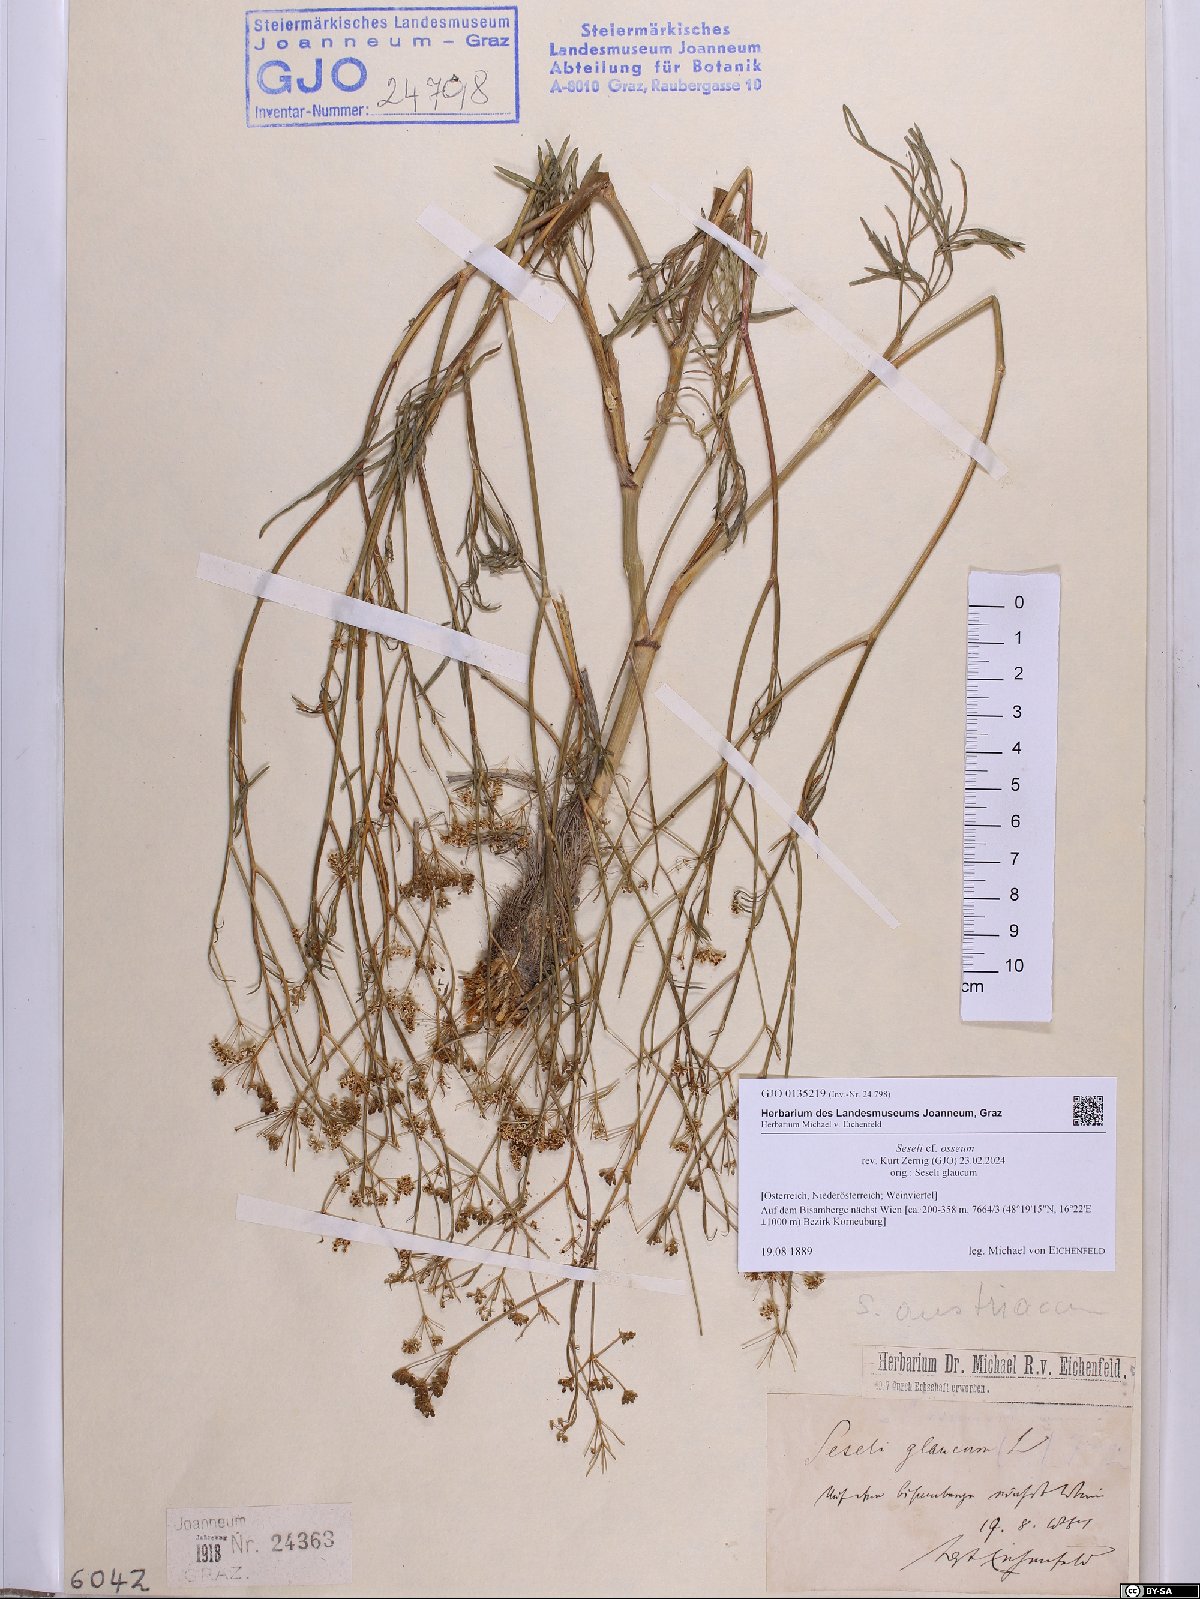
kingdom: Plantae
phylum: Tracheophyta
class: Magnoliopsida
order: Apiales
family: Apiaceae
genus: Seseli
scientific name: Seseli osseum
